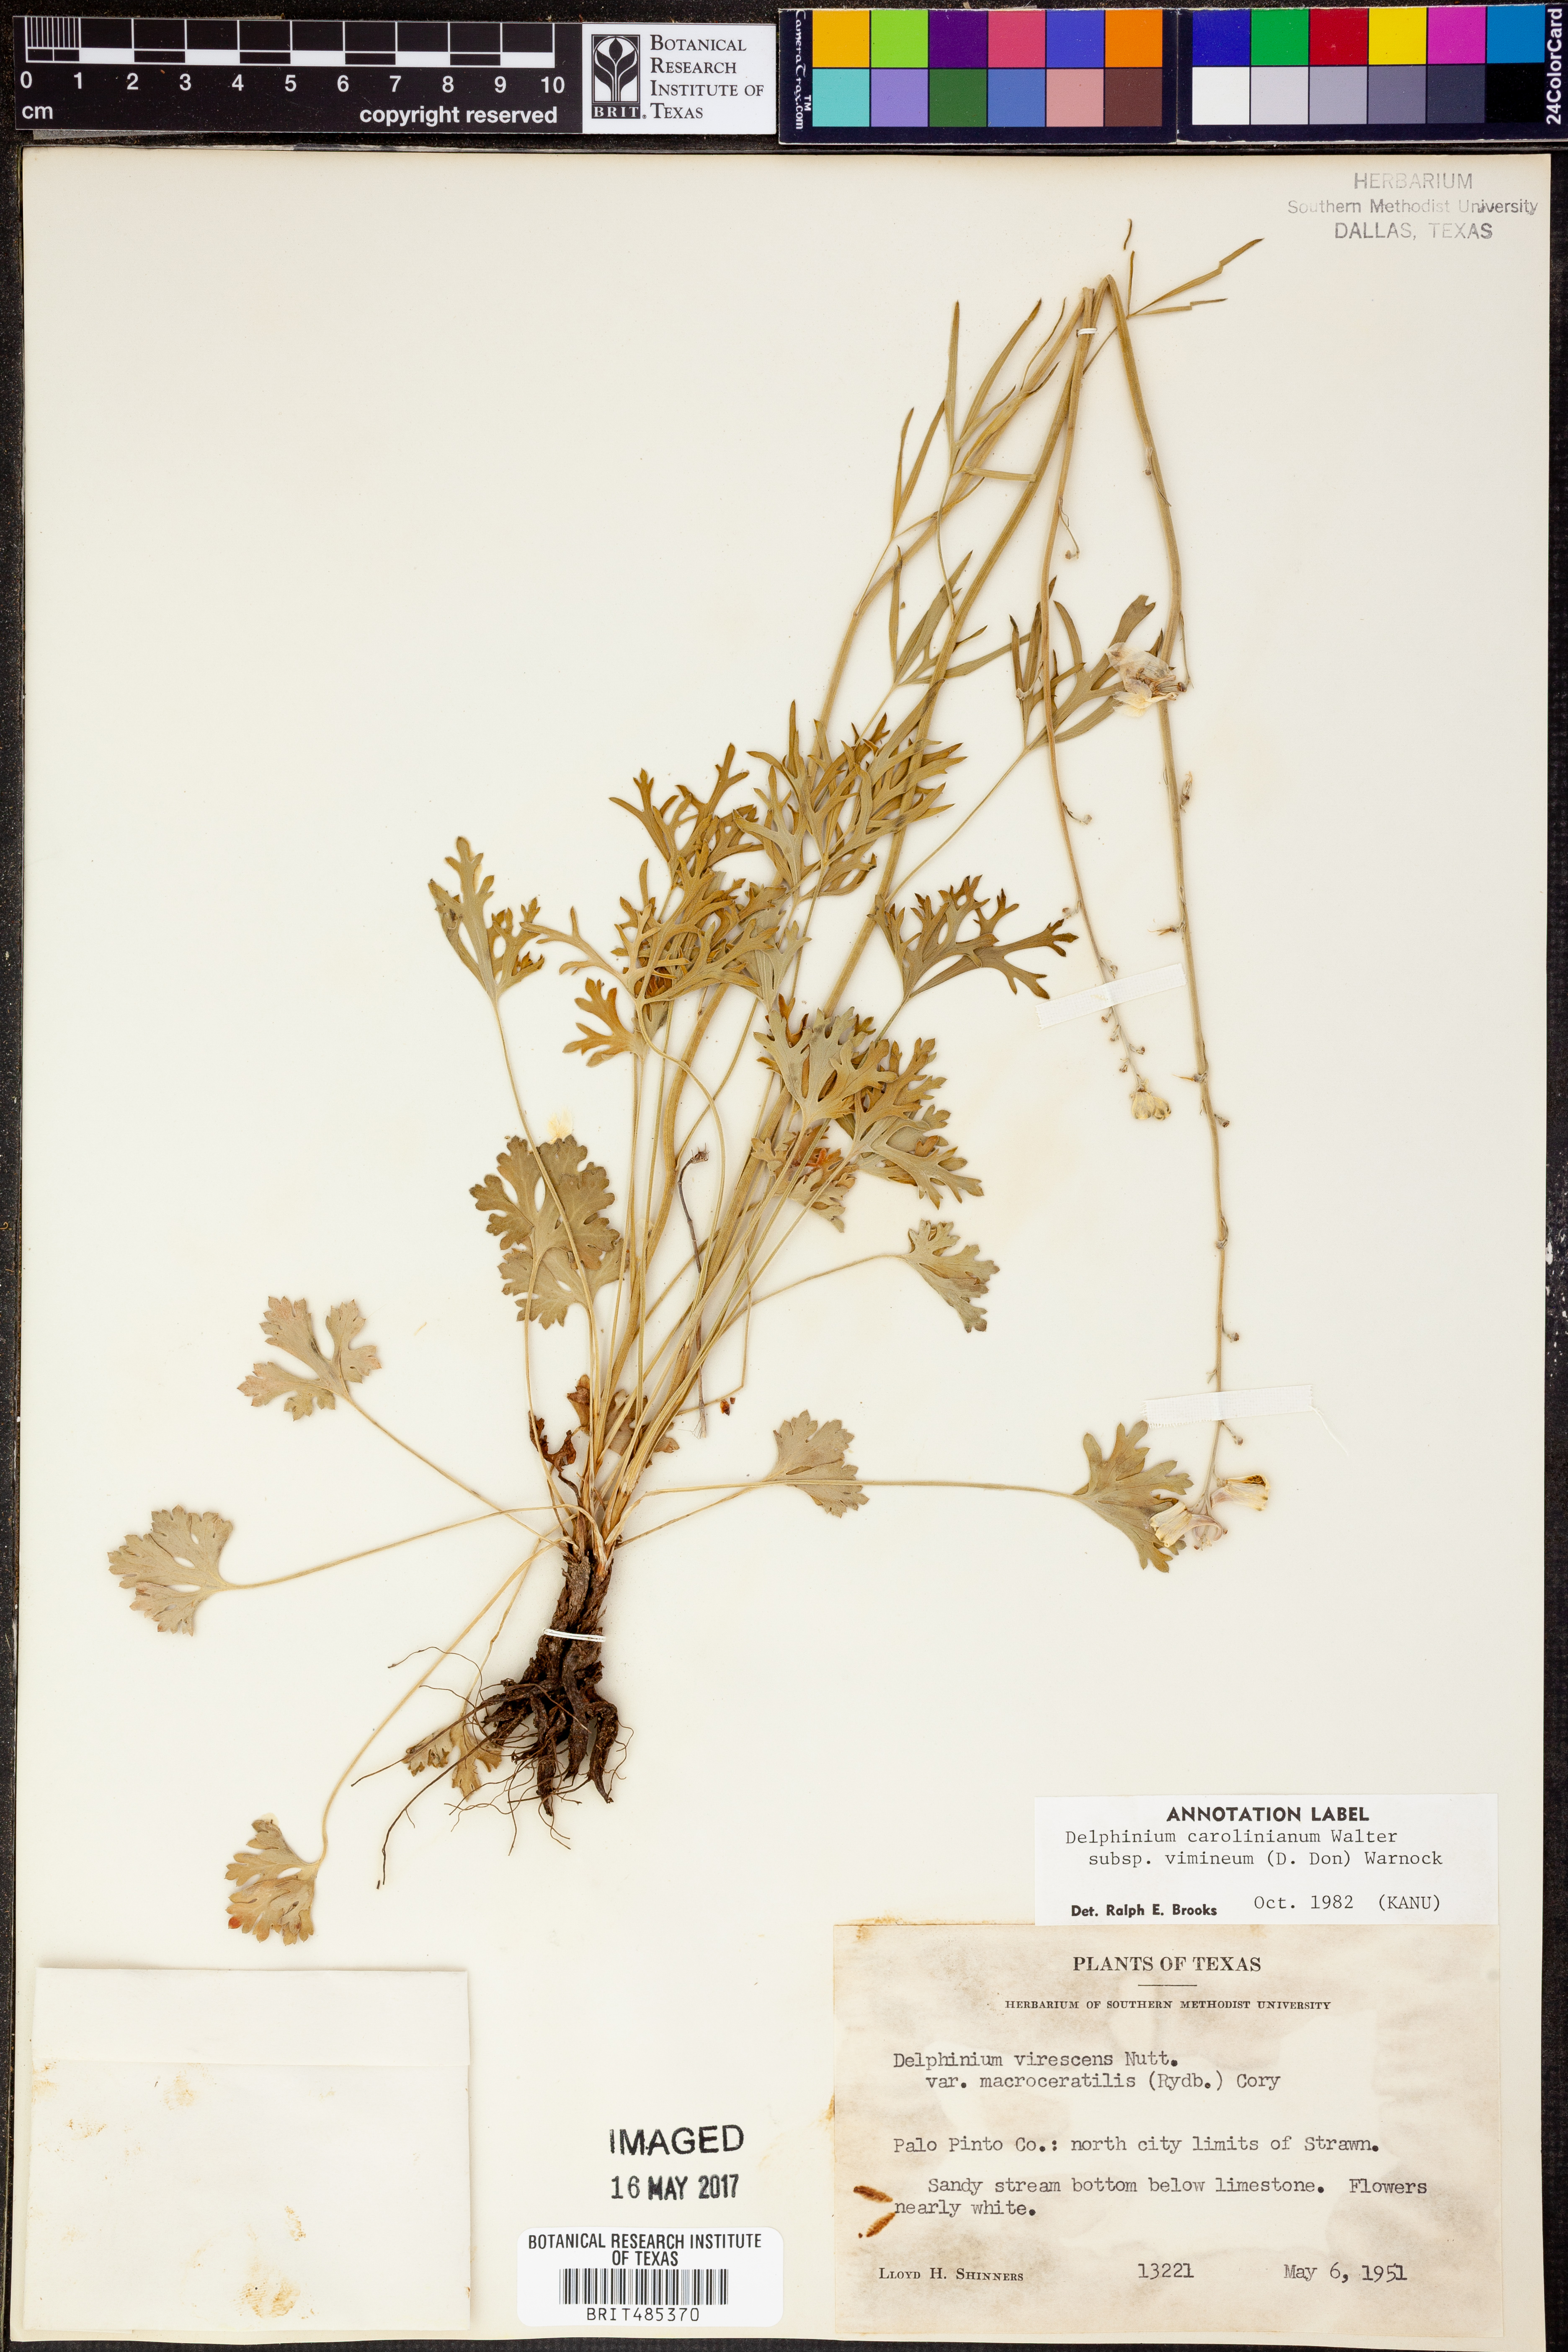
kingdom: Plantae
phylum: Tracheophyta
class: Magnoliopsida
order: Ranunculales
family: Ranunculaceae
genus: Delphinium
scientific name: Delphinium carolinianum
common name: Carolina larkspur
